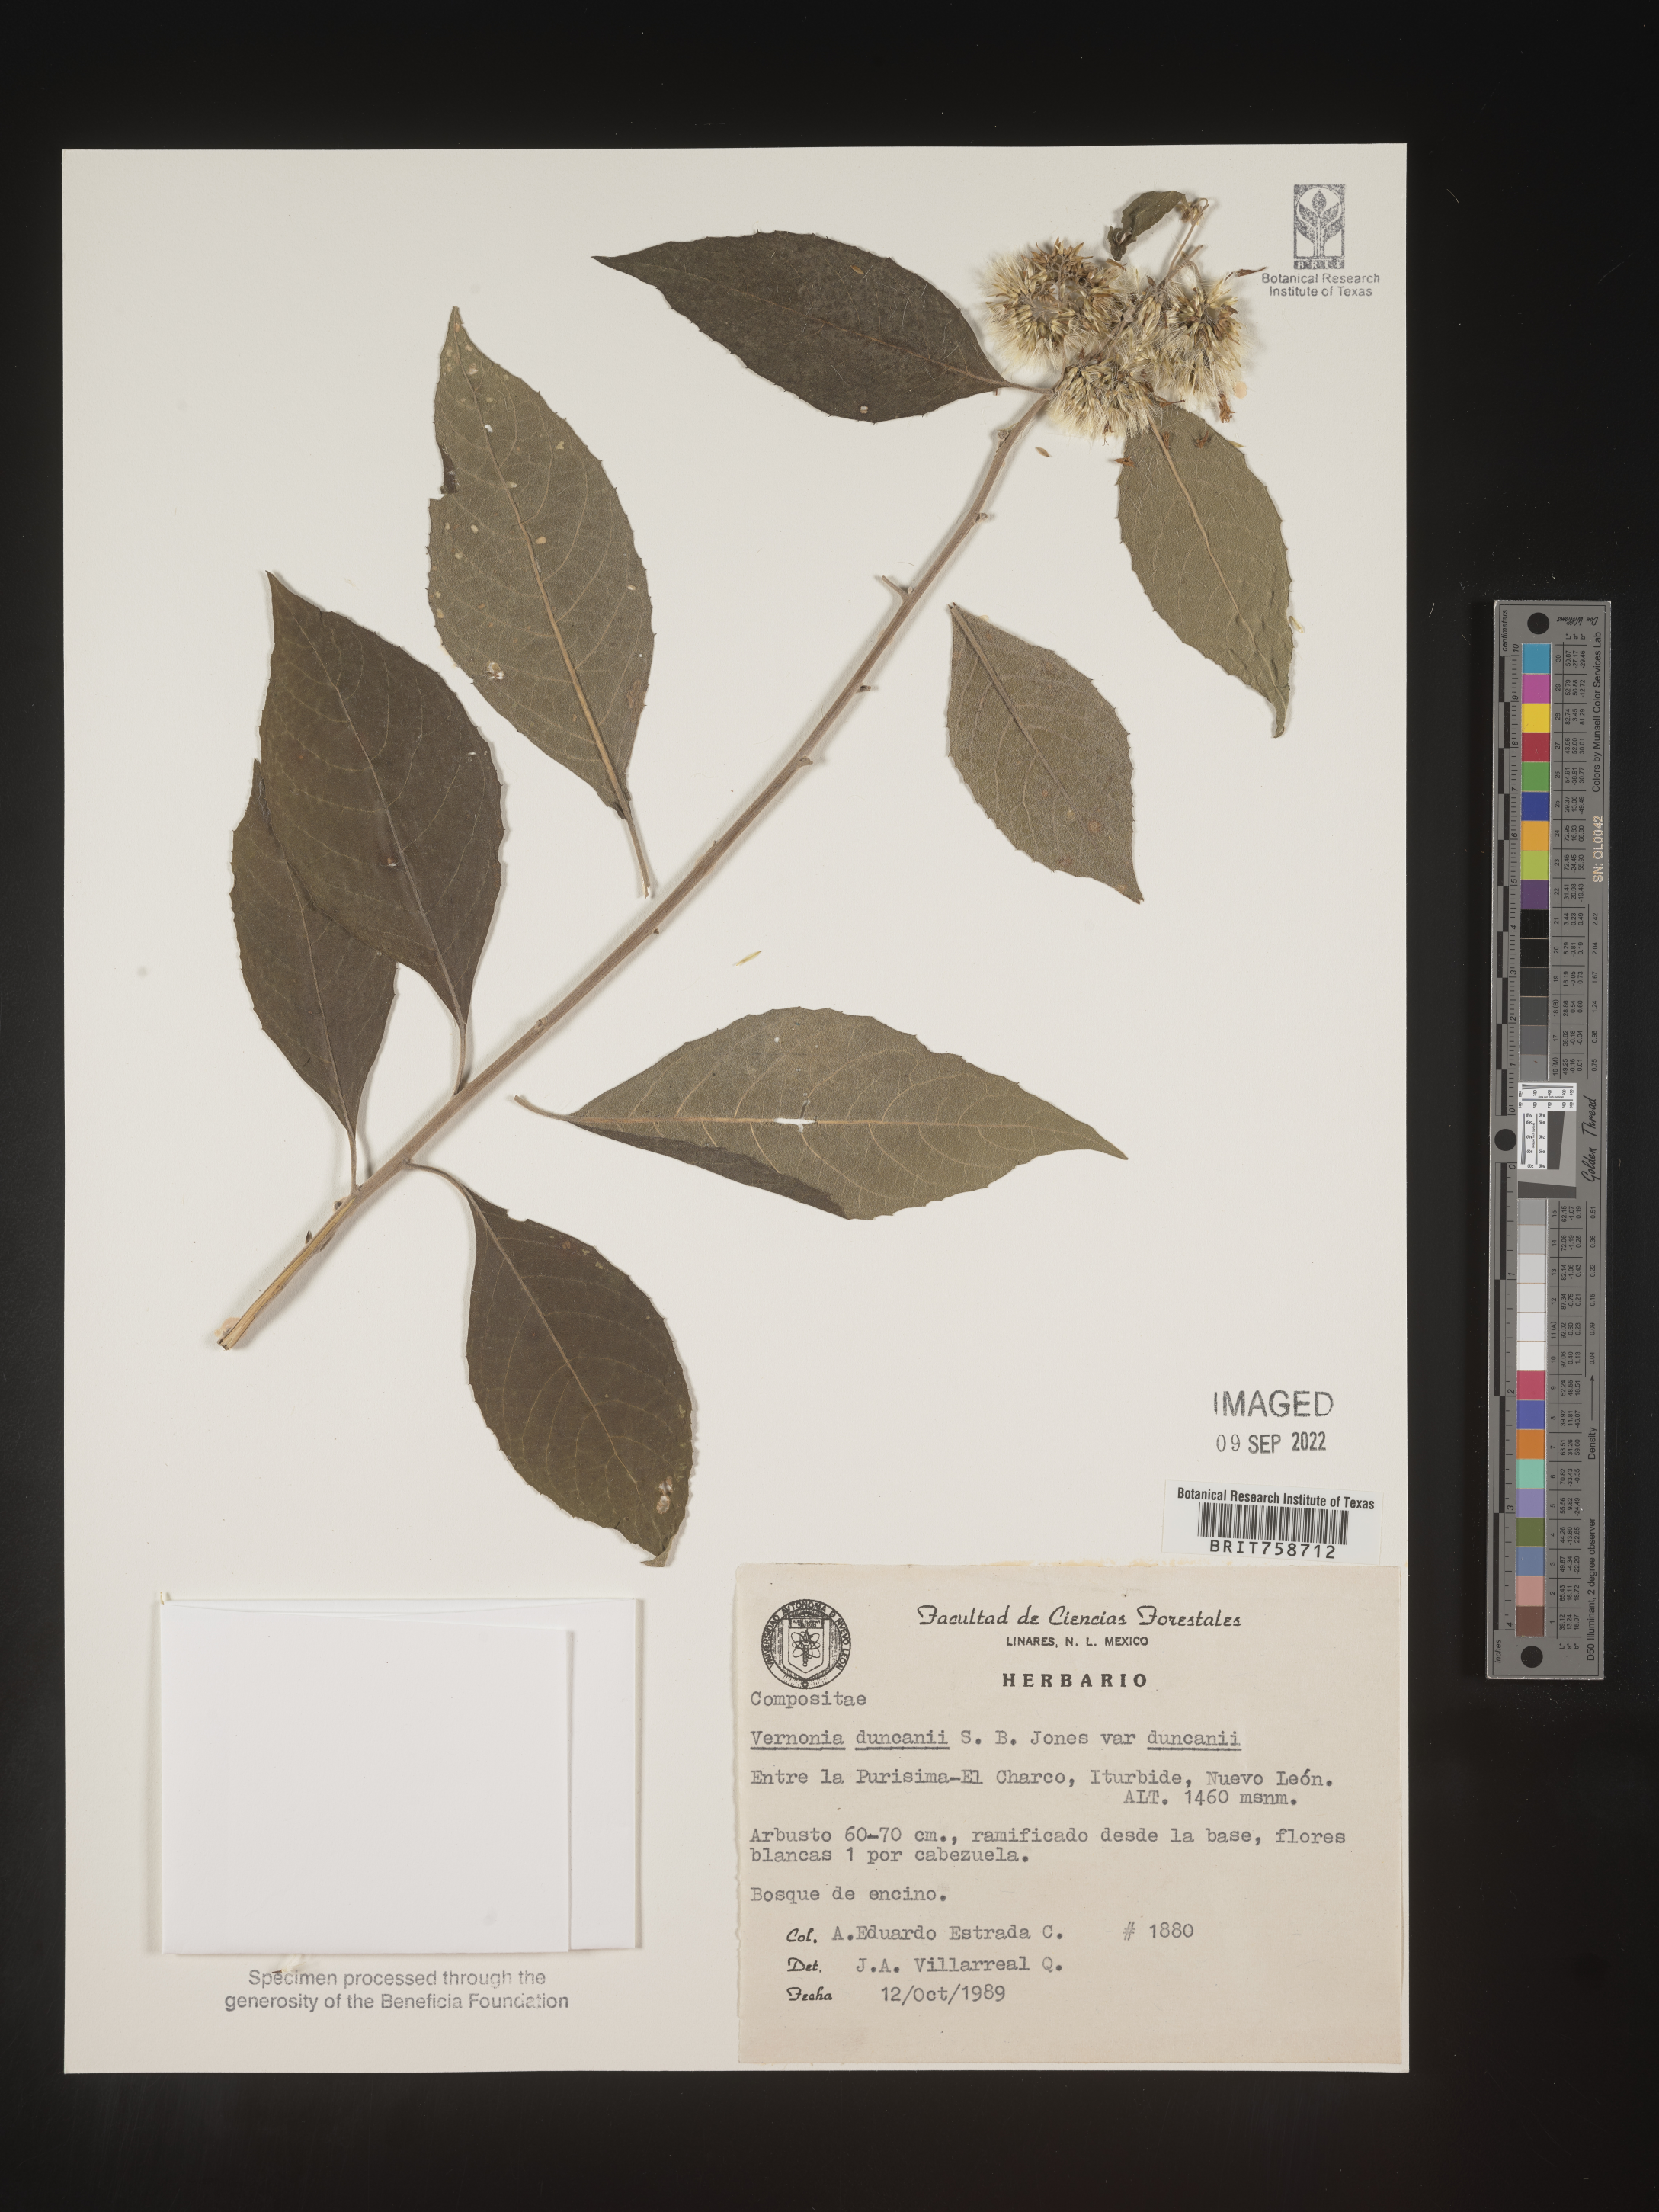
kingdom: Plantae
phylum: Tracheophyta
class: Magnoliopsida
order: Asterales
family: Asteraceae
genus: Vernonia
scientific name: Vernonia
